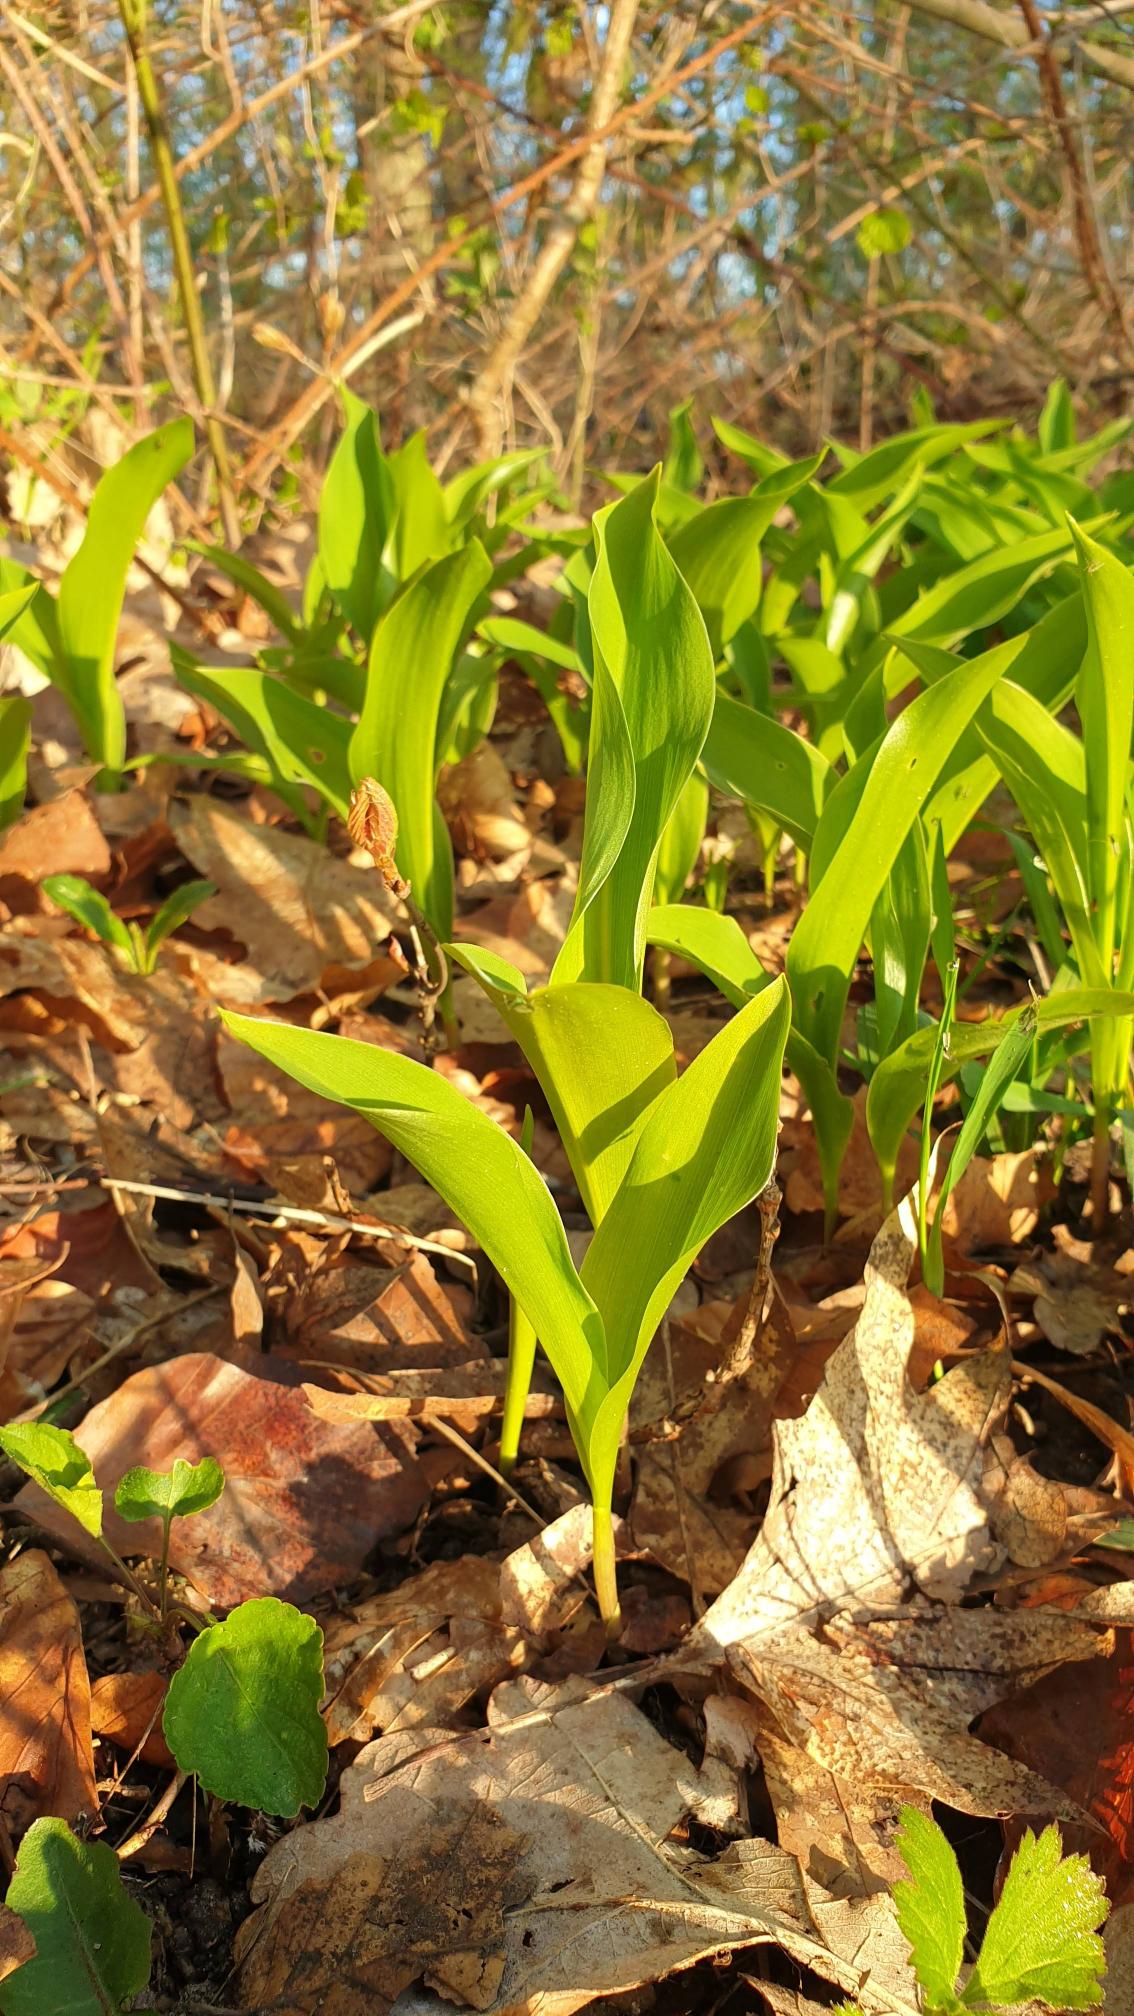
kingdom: Plantae
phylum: Tracheophyta
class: Liliopsida
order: Asparagales
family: Asparagaceae
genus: Convallaria
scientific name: Convallaria majalis
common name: Liljekonval
